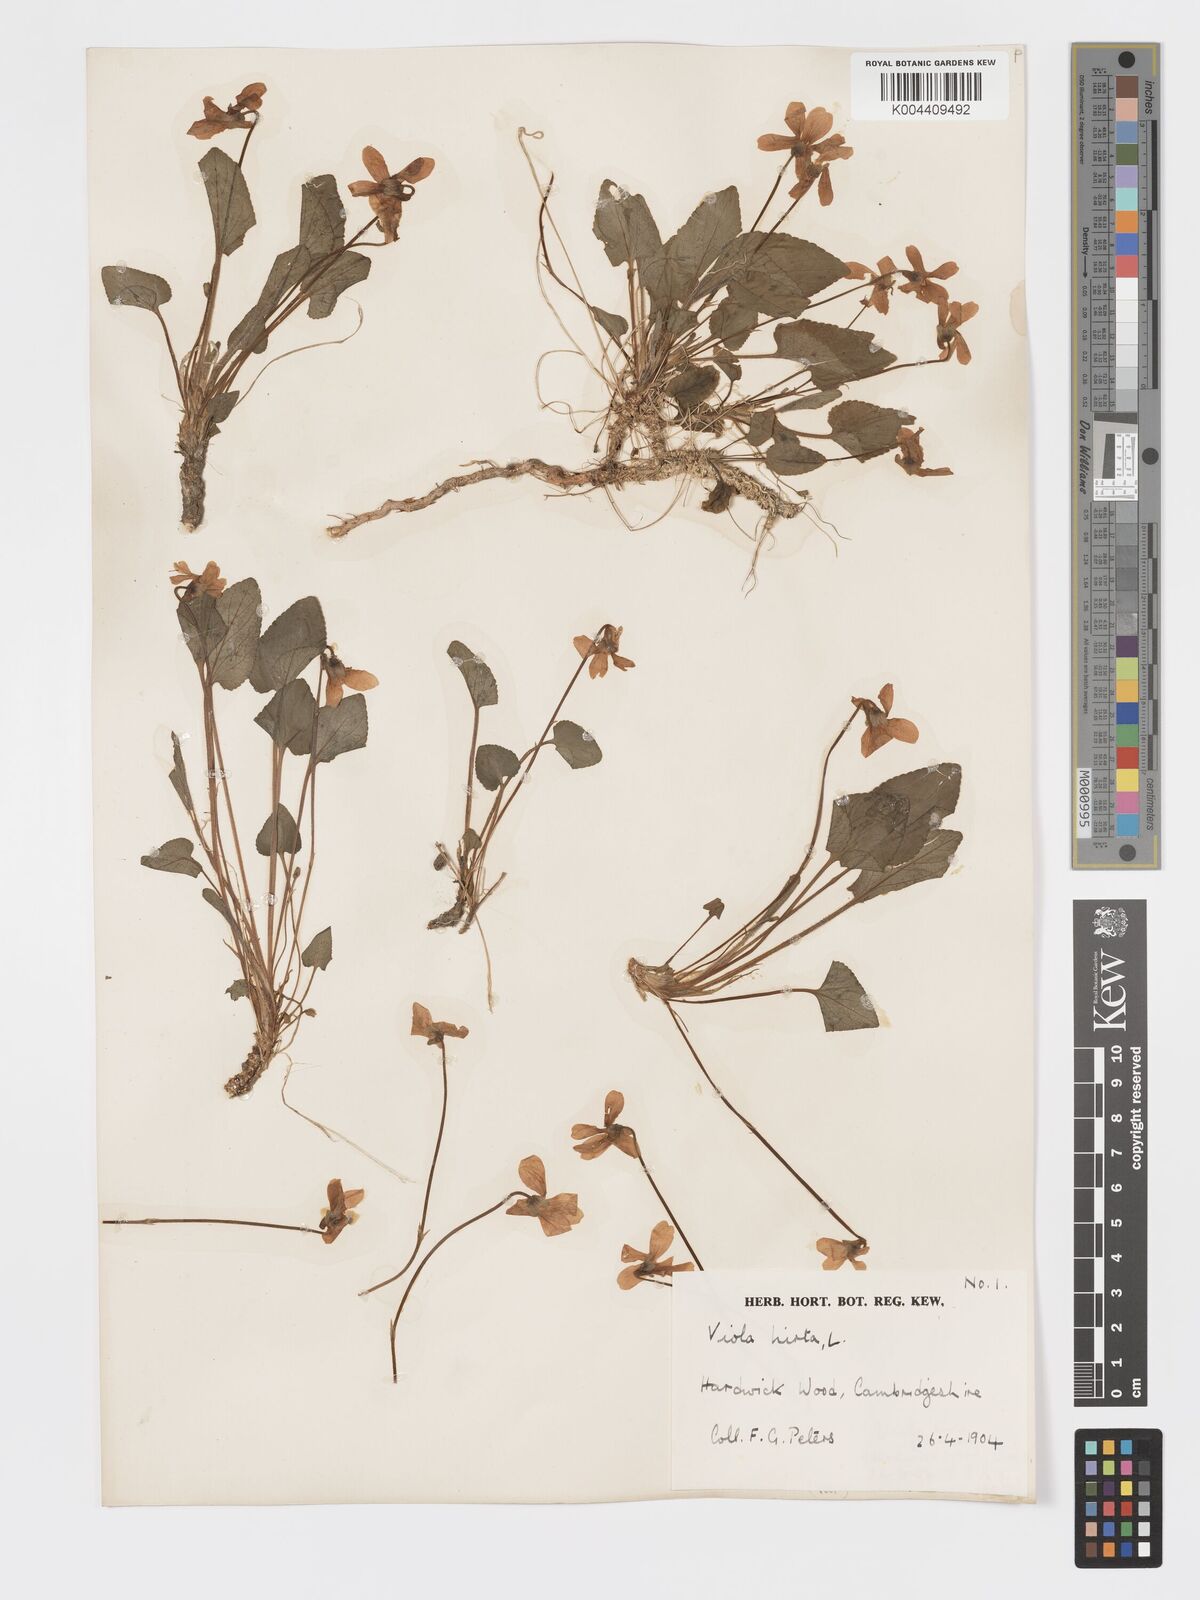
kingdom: Plantae
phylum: Tracheophyta
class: Magnoliopsida
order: Malpighiales
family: Violaceae
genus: Viola
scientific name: Viola
